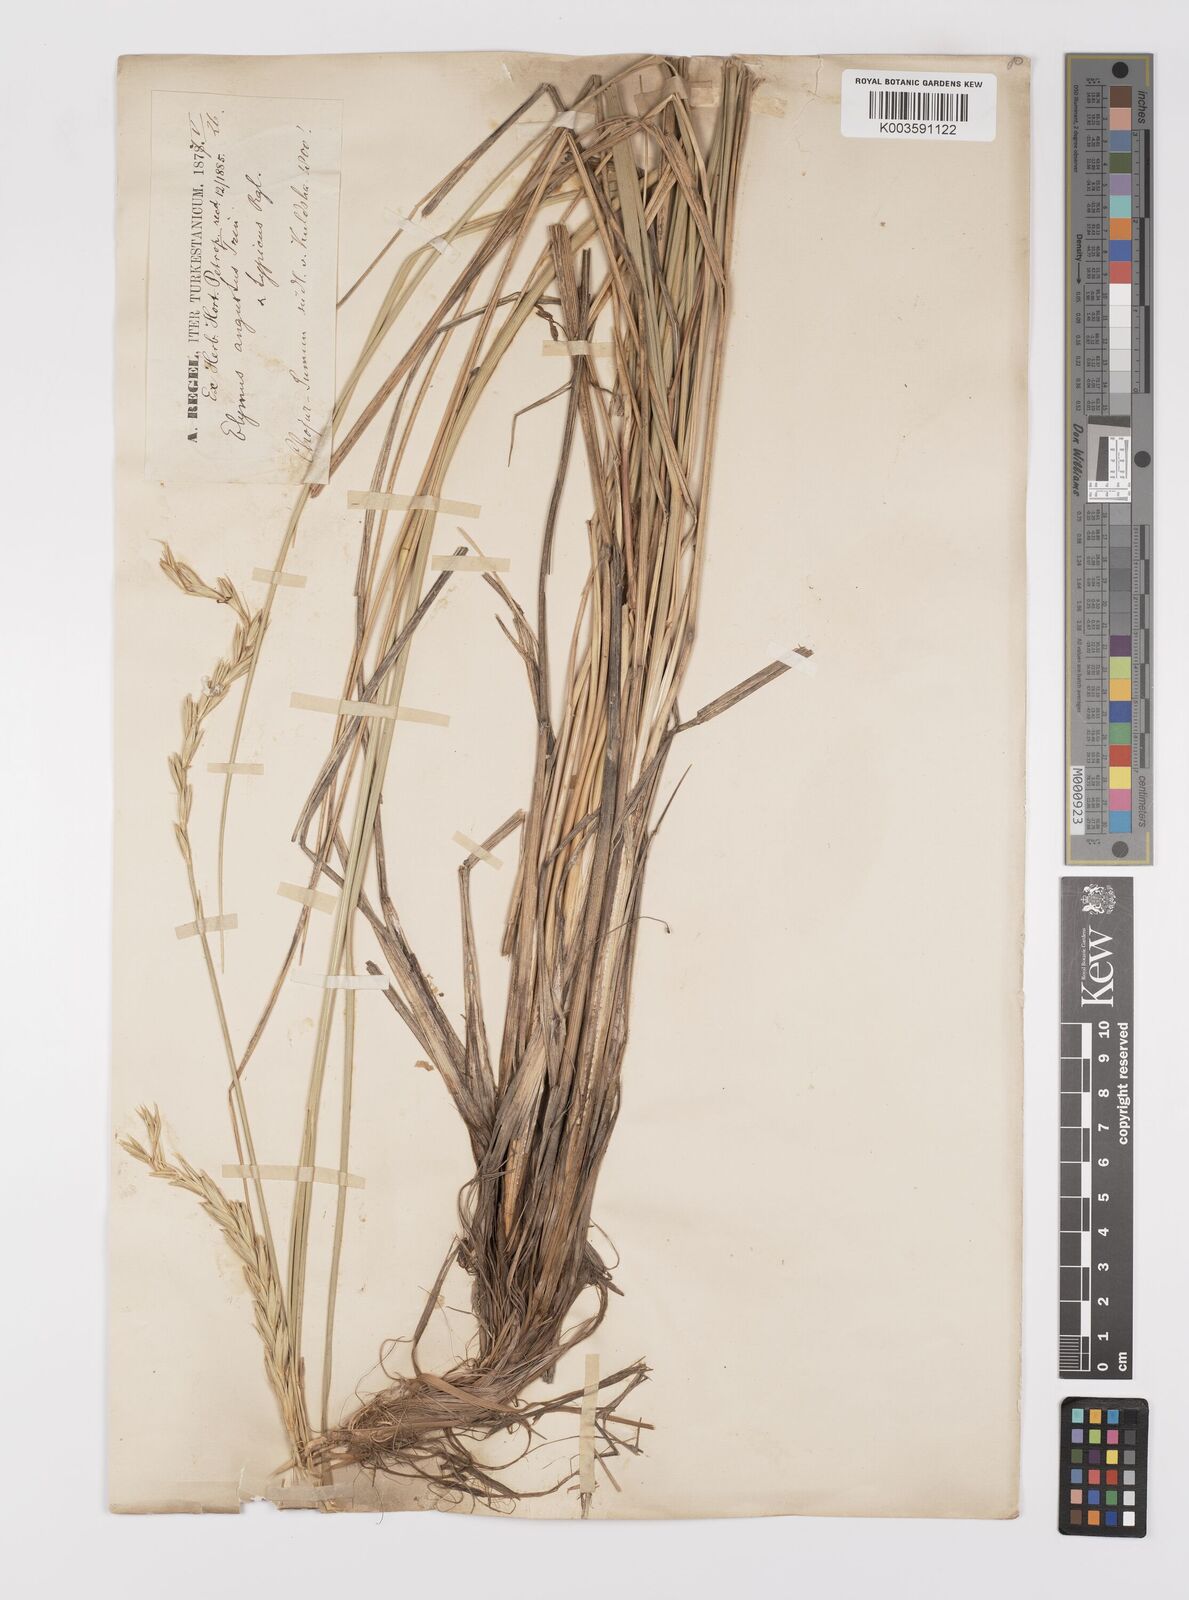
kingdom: Plantae
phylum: Tracheophyta
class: Liliopsida
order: Poales
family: Poaceae
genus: Leymus
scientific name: Leymus angustus
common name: Altai wildrye
